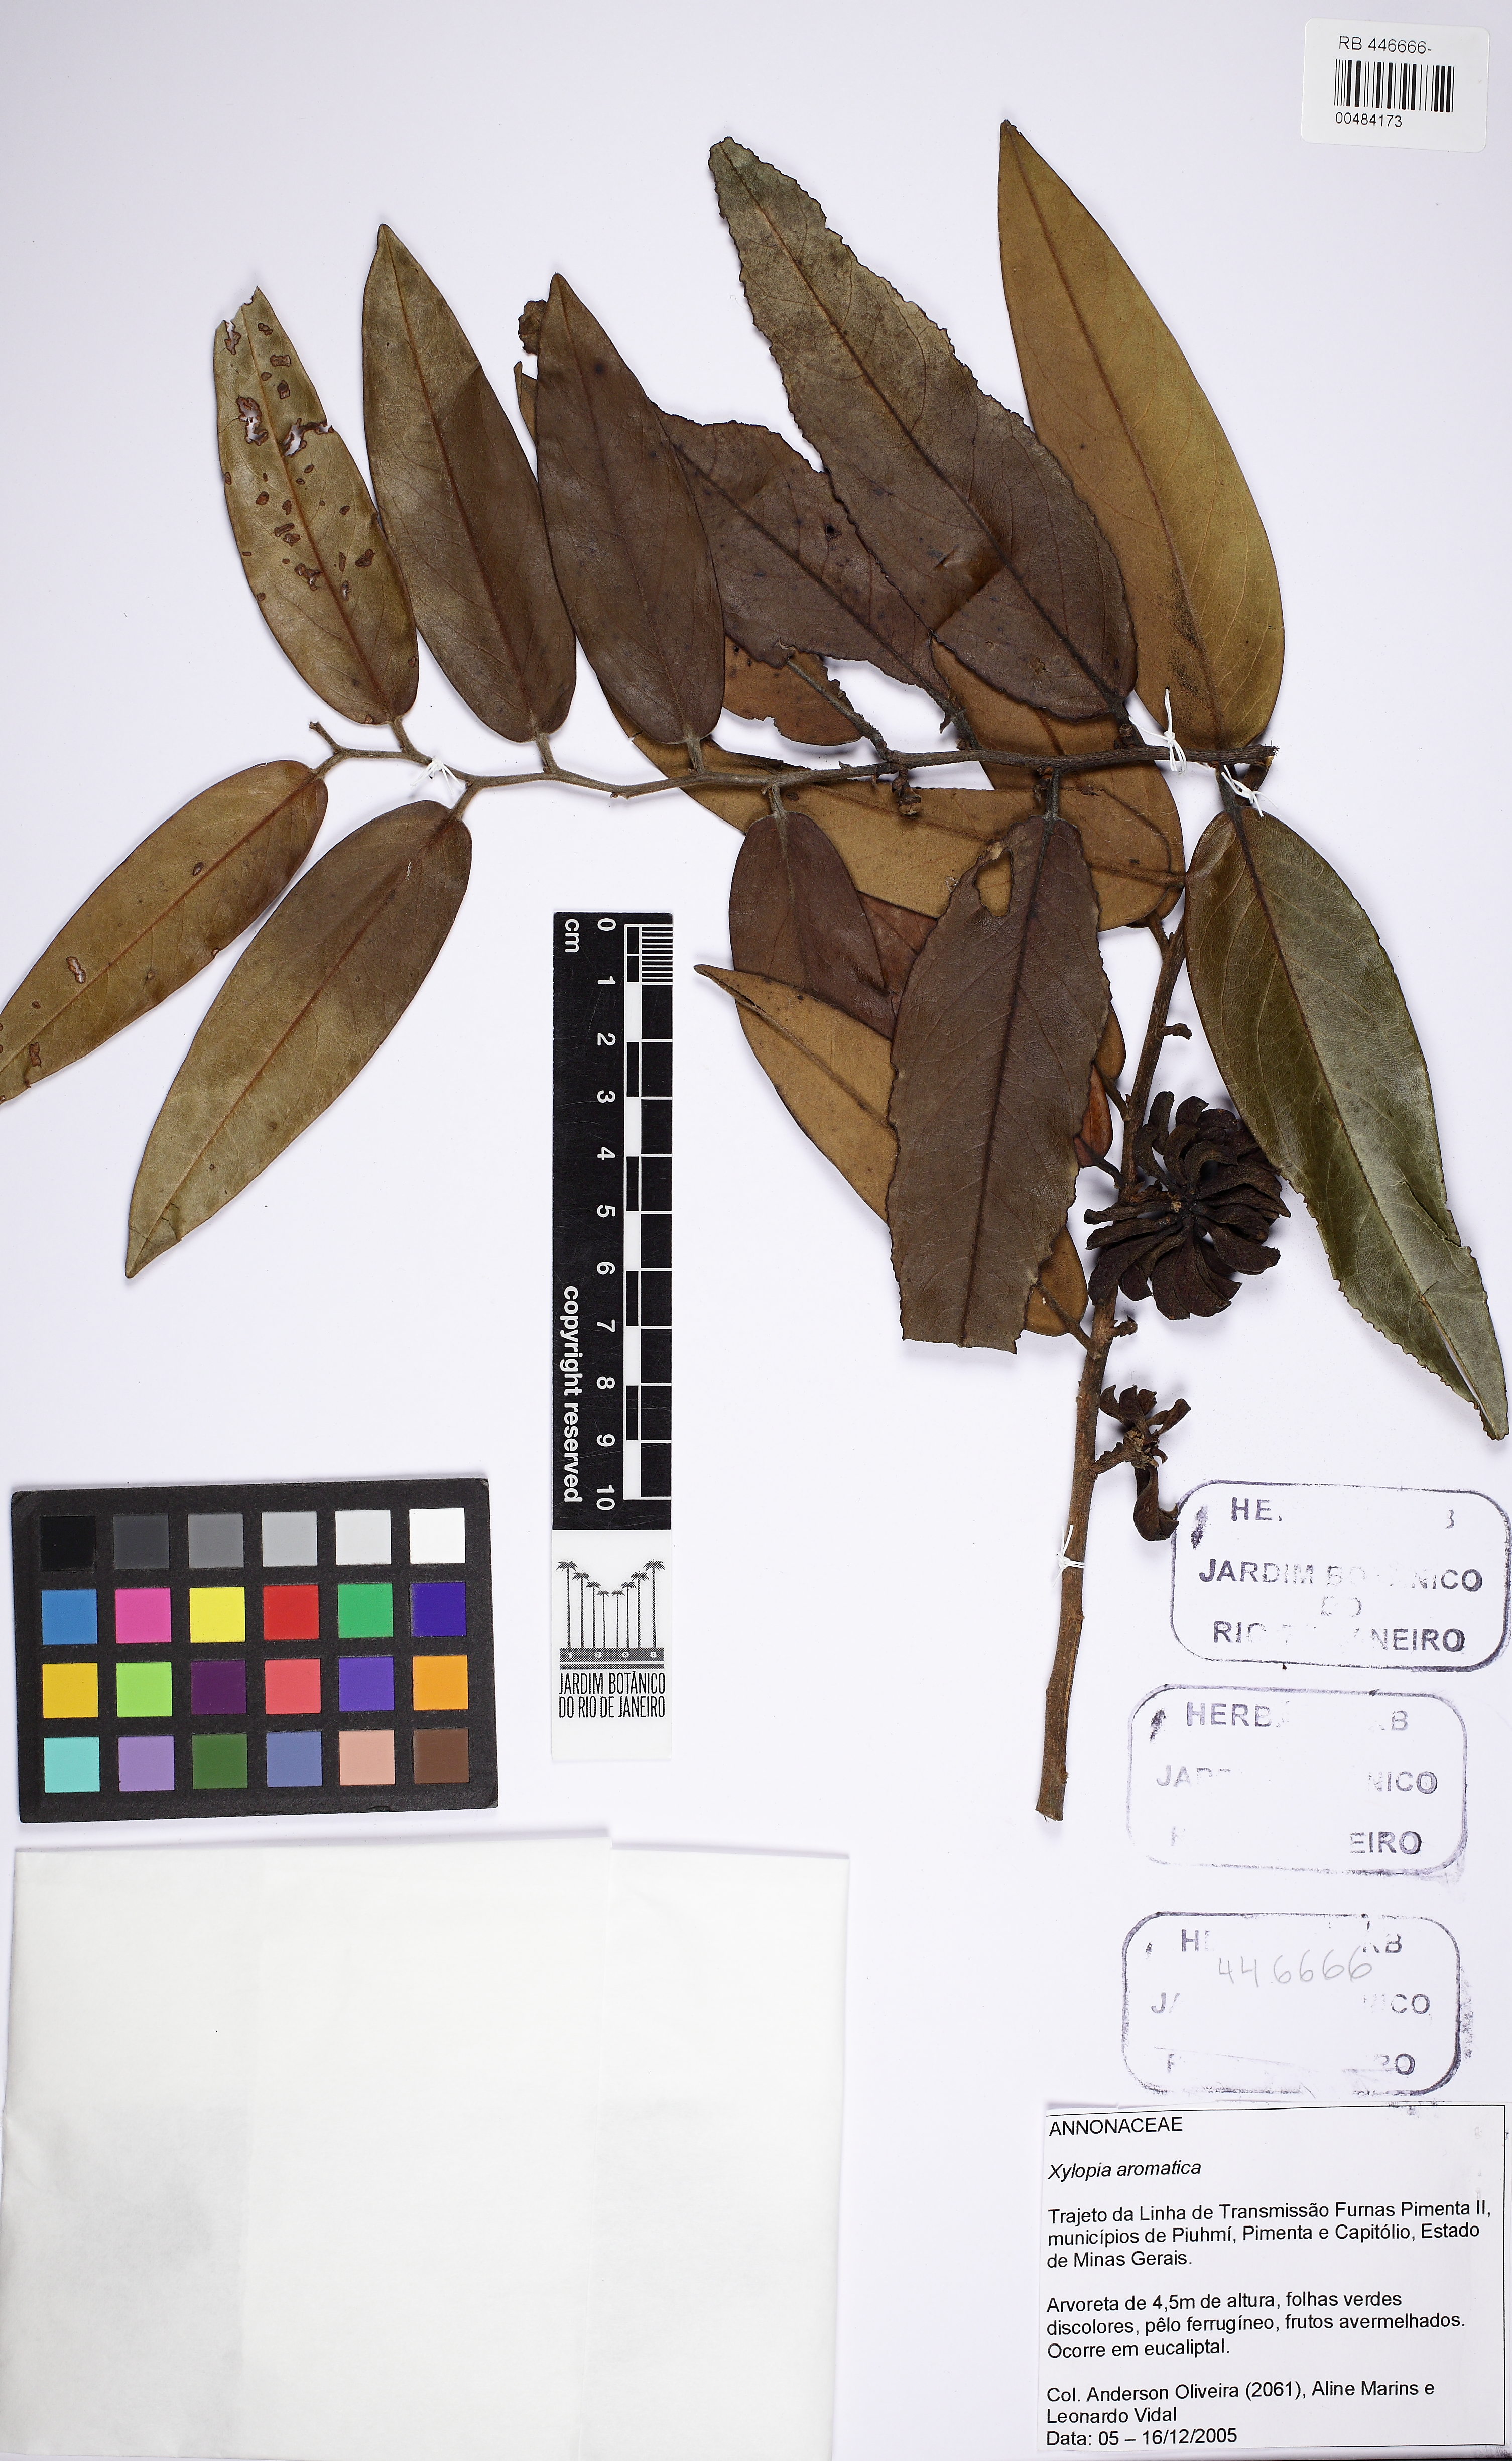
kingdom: Plantae
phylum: Tracheophyta
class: Magnoliopsida
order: Magnoliales
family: Annonaceae
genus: Xylopia
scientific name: Xylopia aromatica
